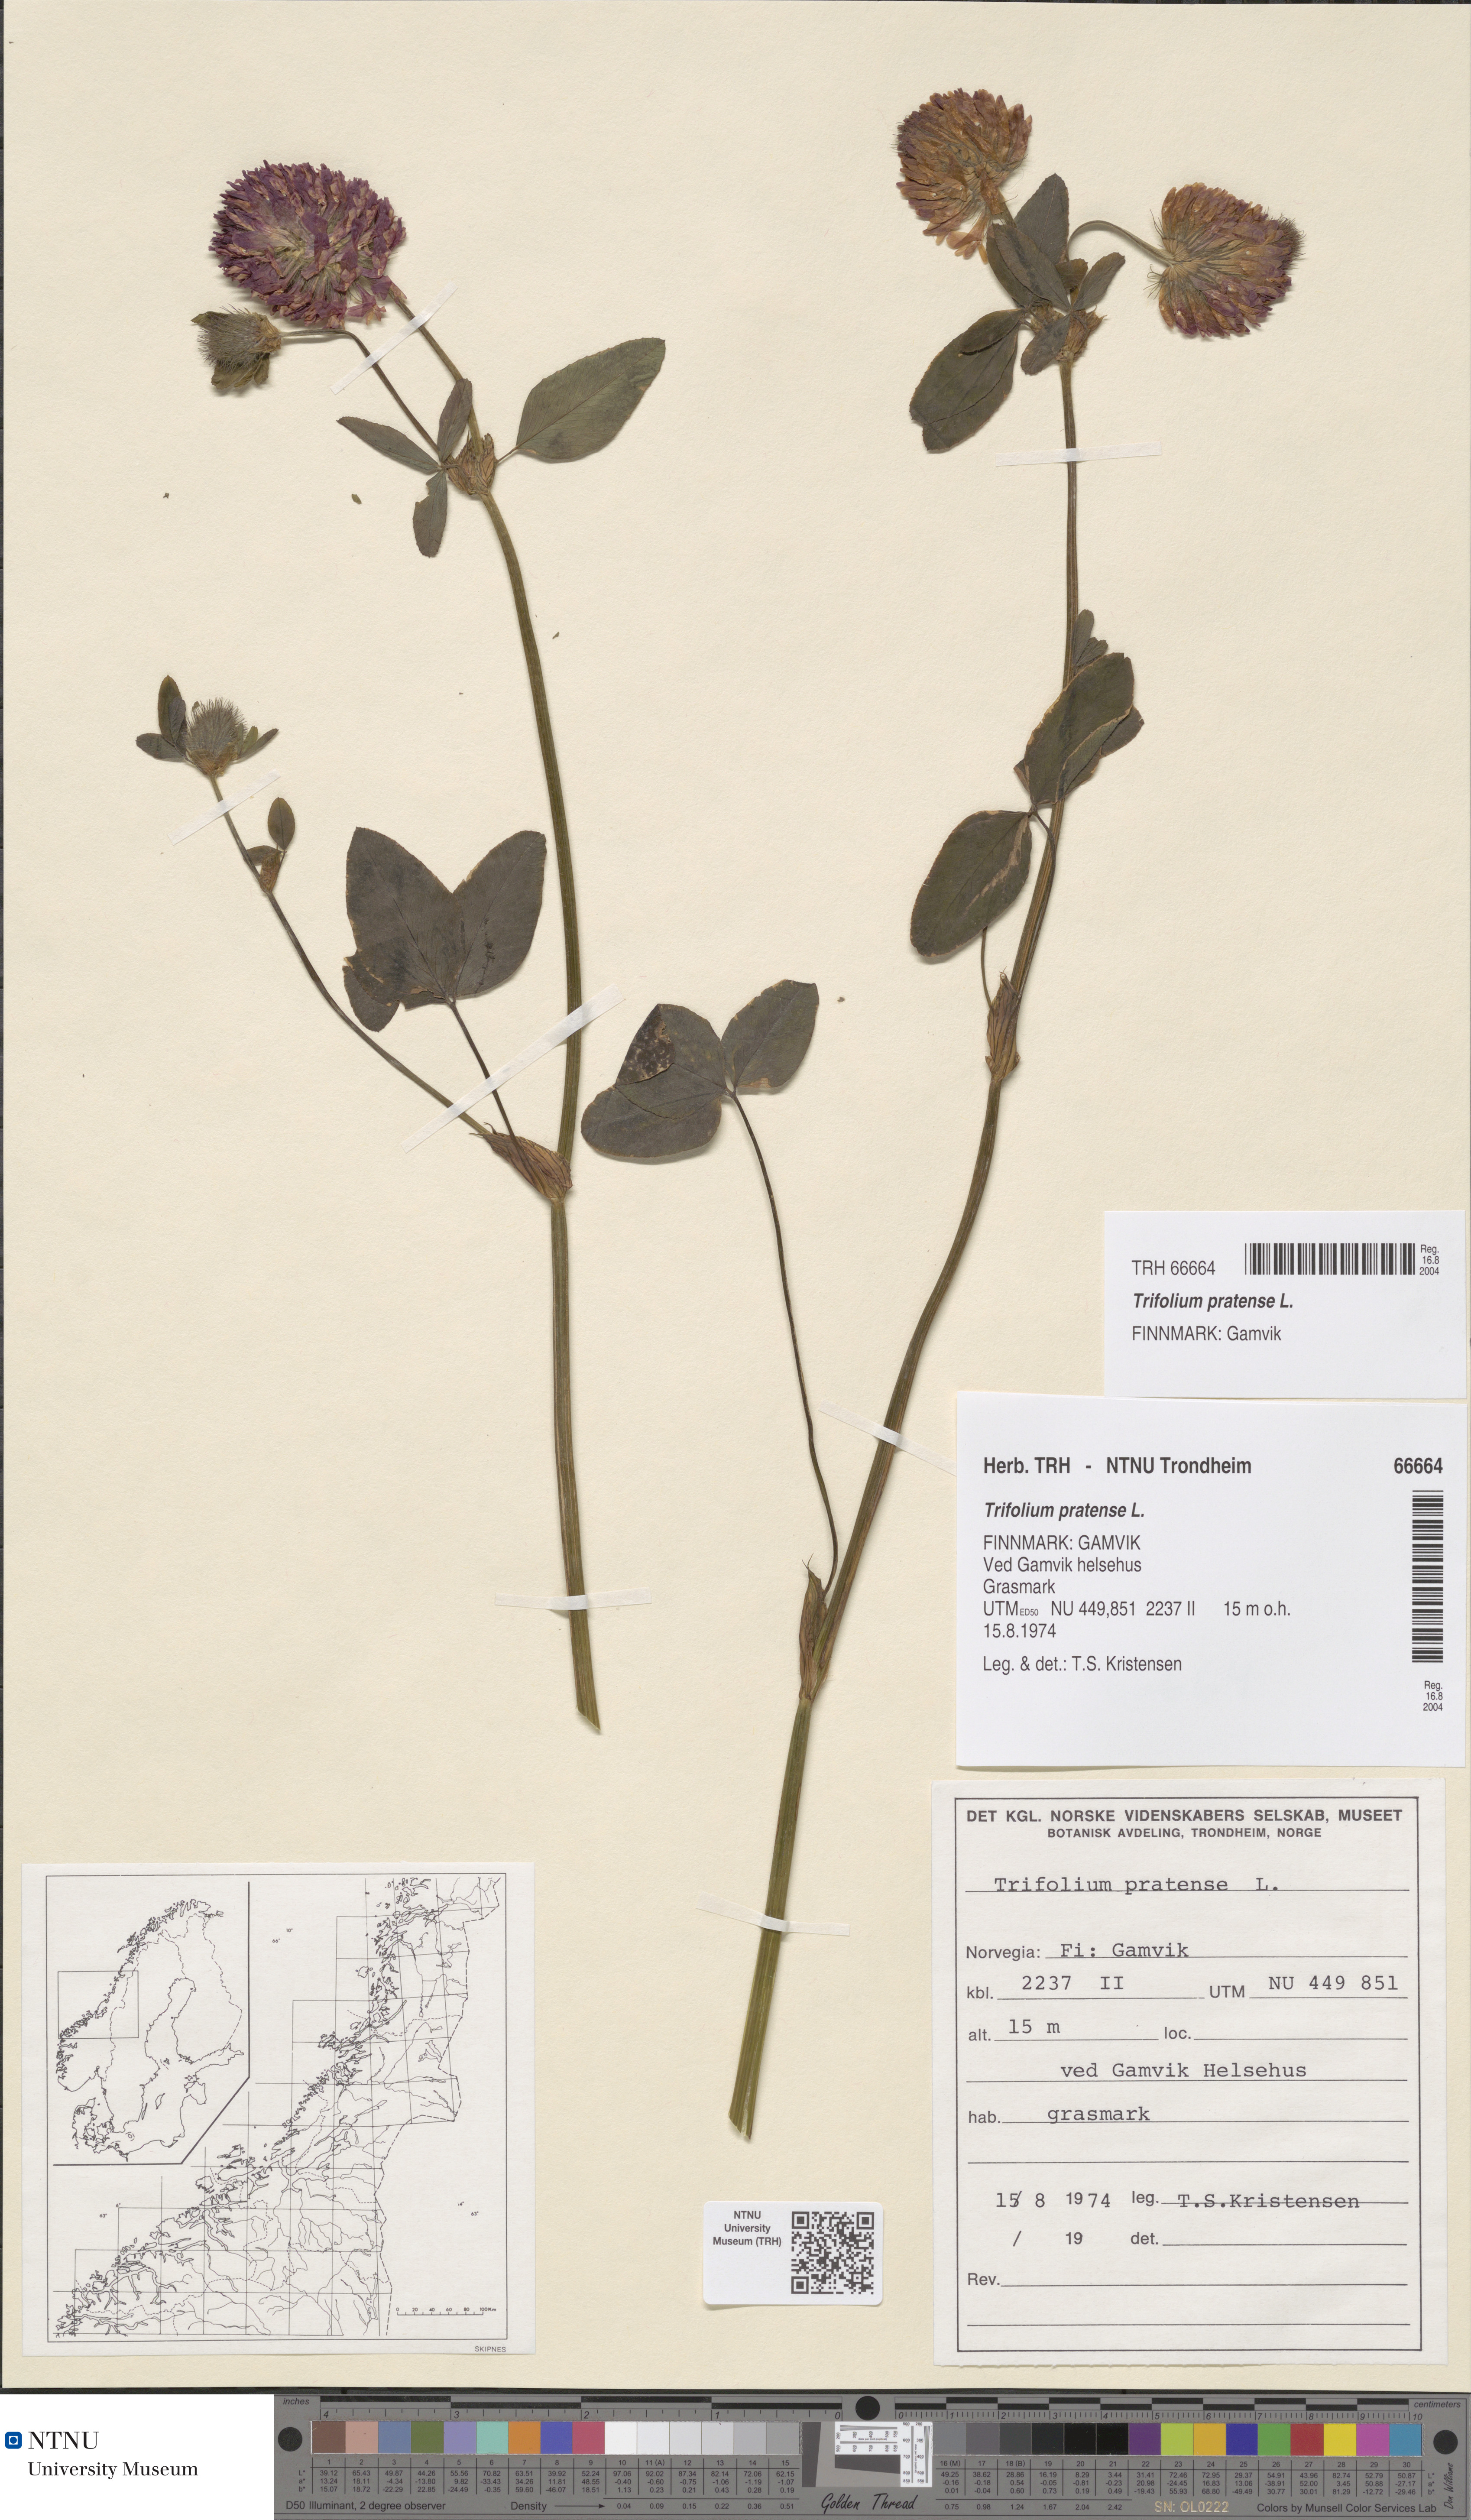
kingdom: Plantae
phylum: Tracheophyta
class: Magnoliopsida
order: Fabales
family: Fabaceae
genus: Trifolium
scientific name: Trifolium pratense
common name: Red clover
